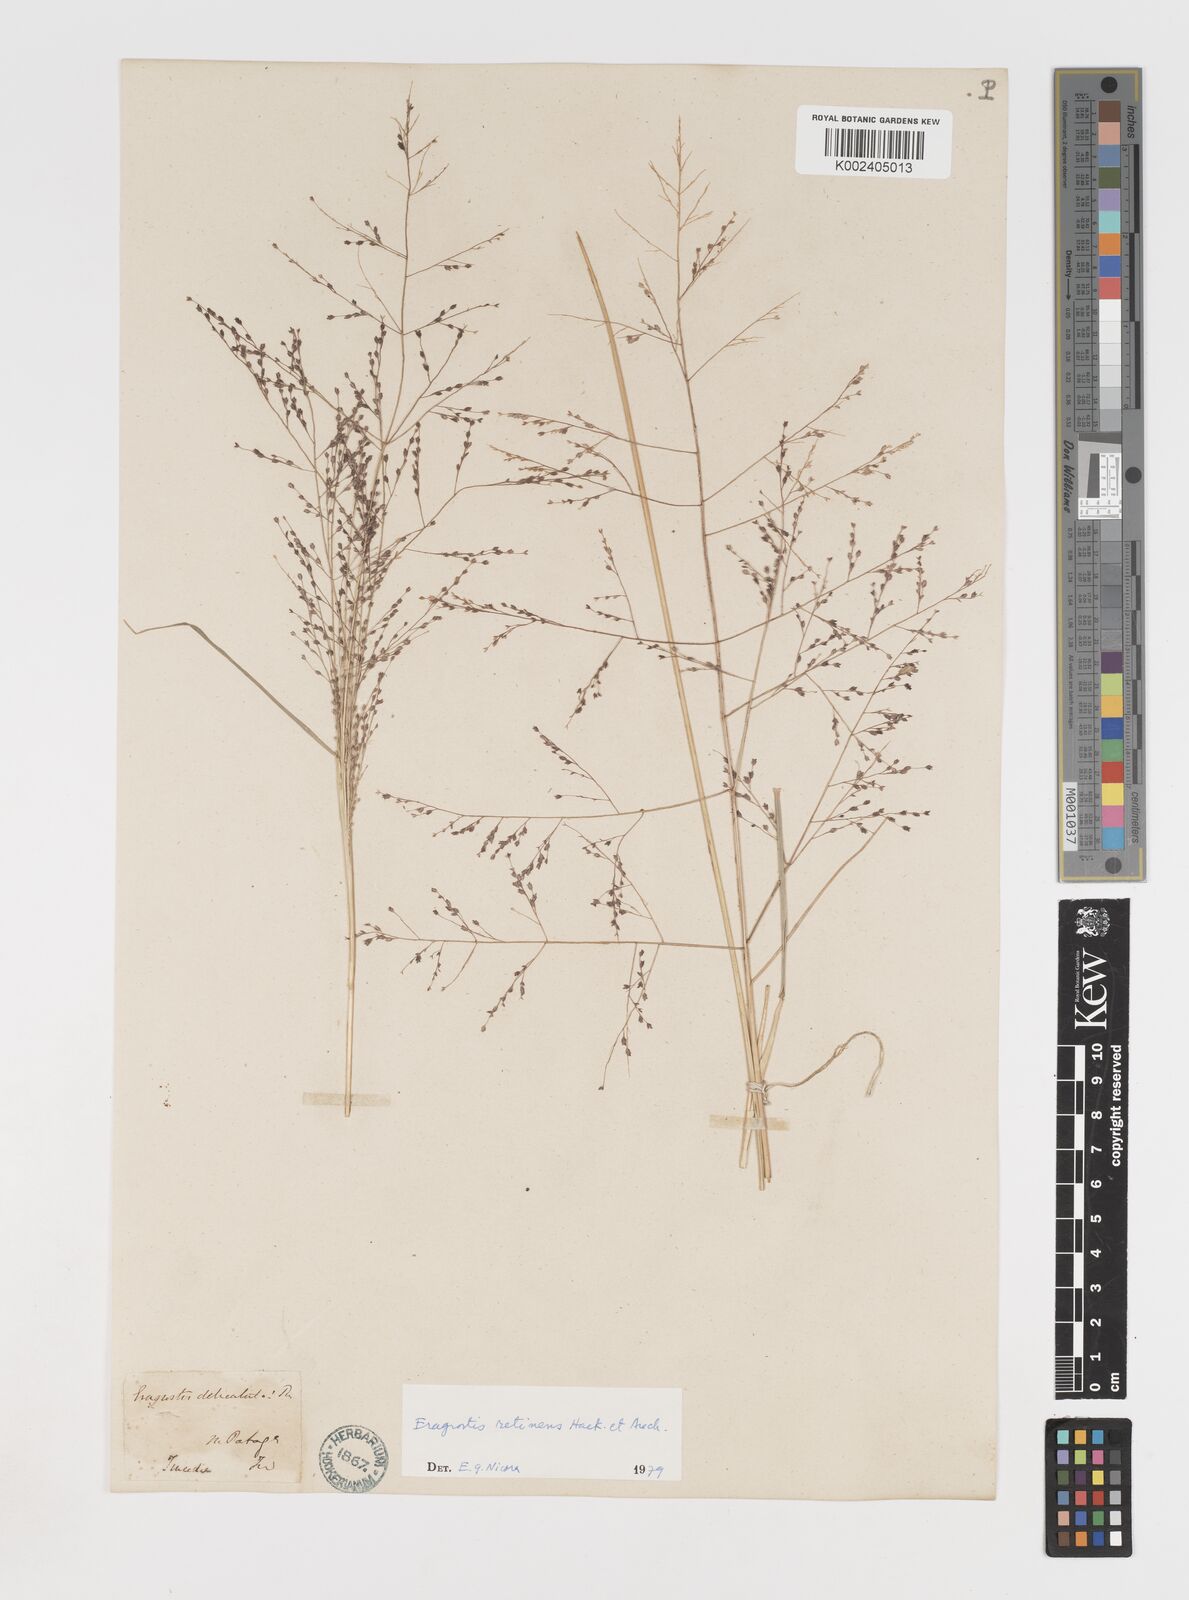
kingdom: Plantae
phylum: Tracheophyta
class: Liliopsida
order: Poales
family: Poaceae
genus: Eragrostis
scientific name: Eragrostis retinens
